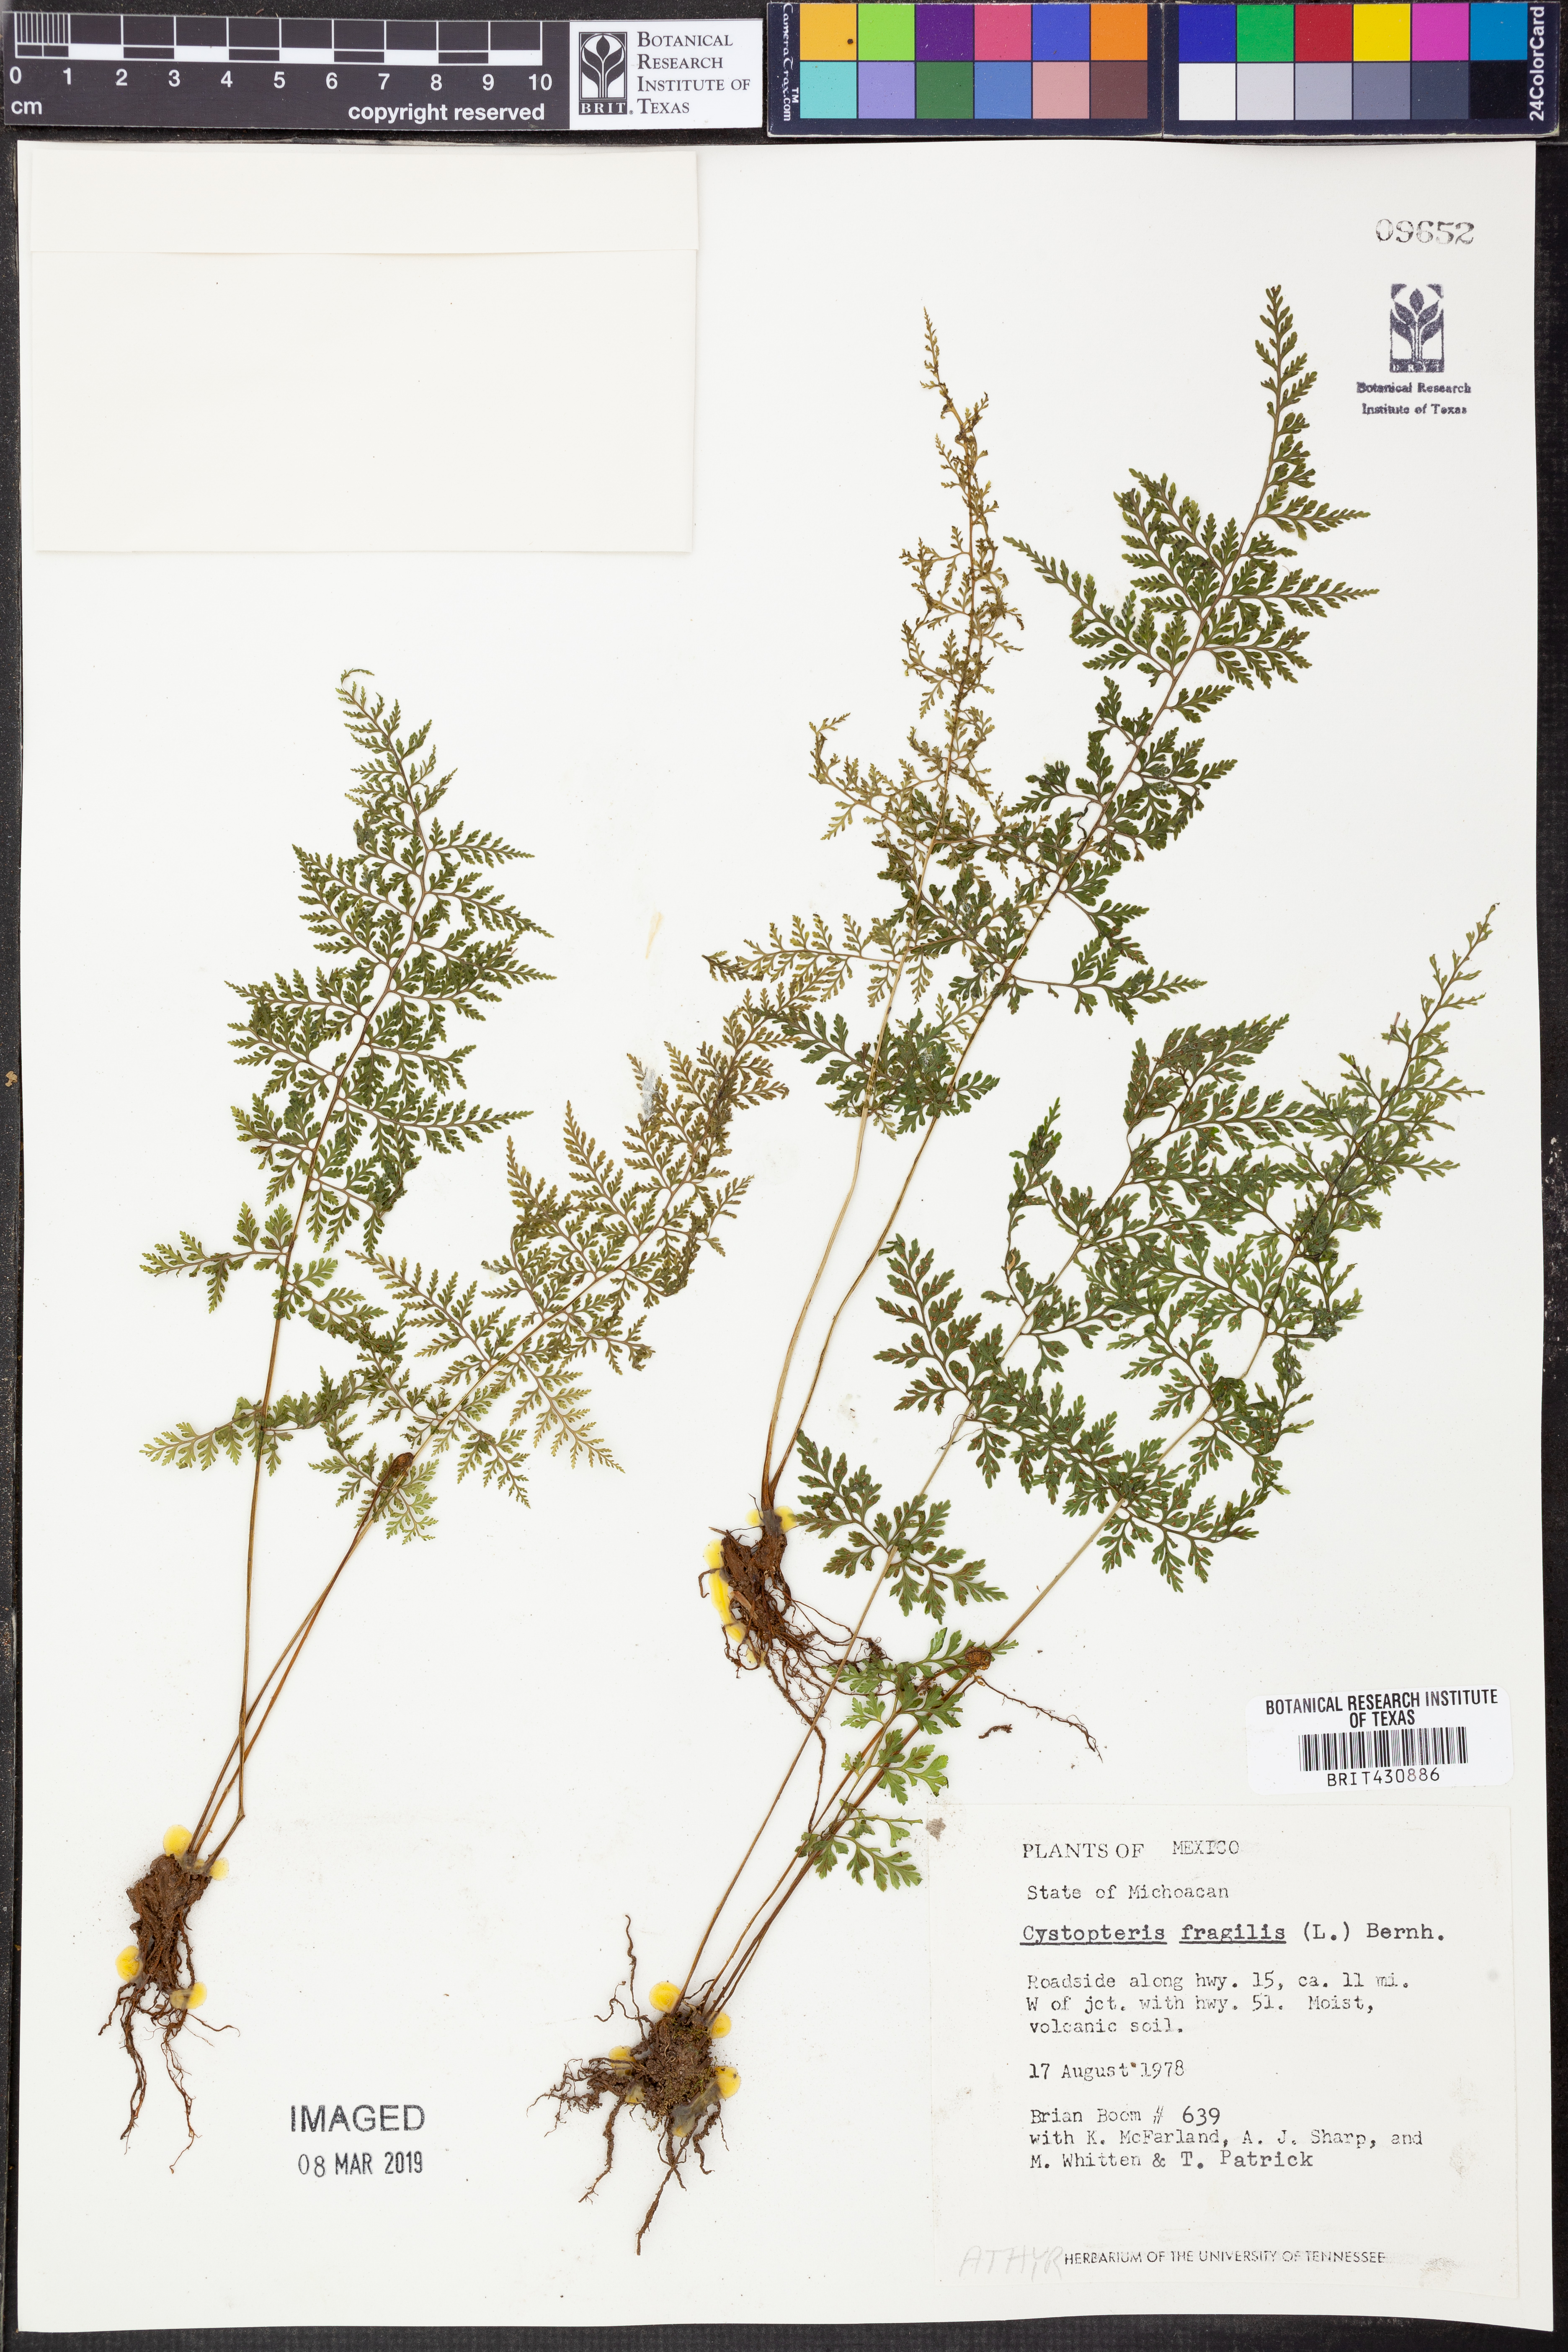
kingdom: Plantae
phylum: Tracheophyta
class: Polypodiopsida
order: Polypodiales
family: Cystopteridaceae
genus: Cystopteris
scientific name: Cystopteris fragilis
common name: Brittle bladder fern
